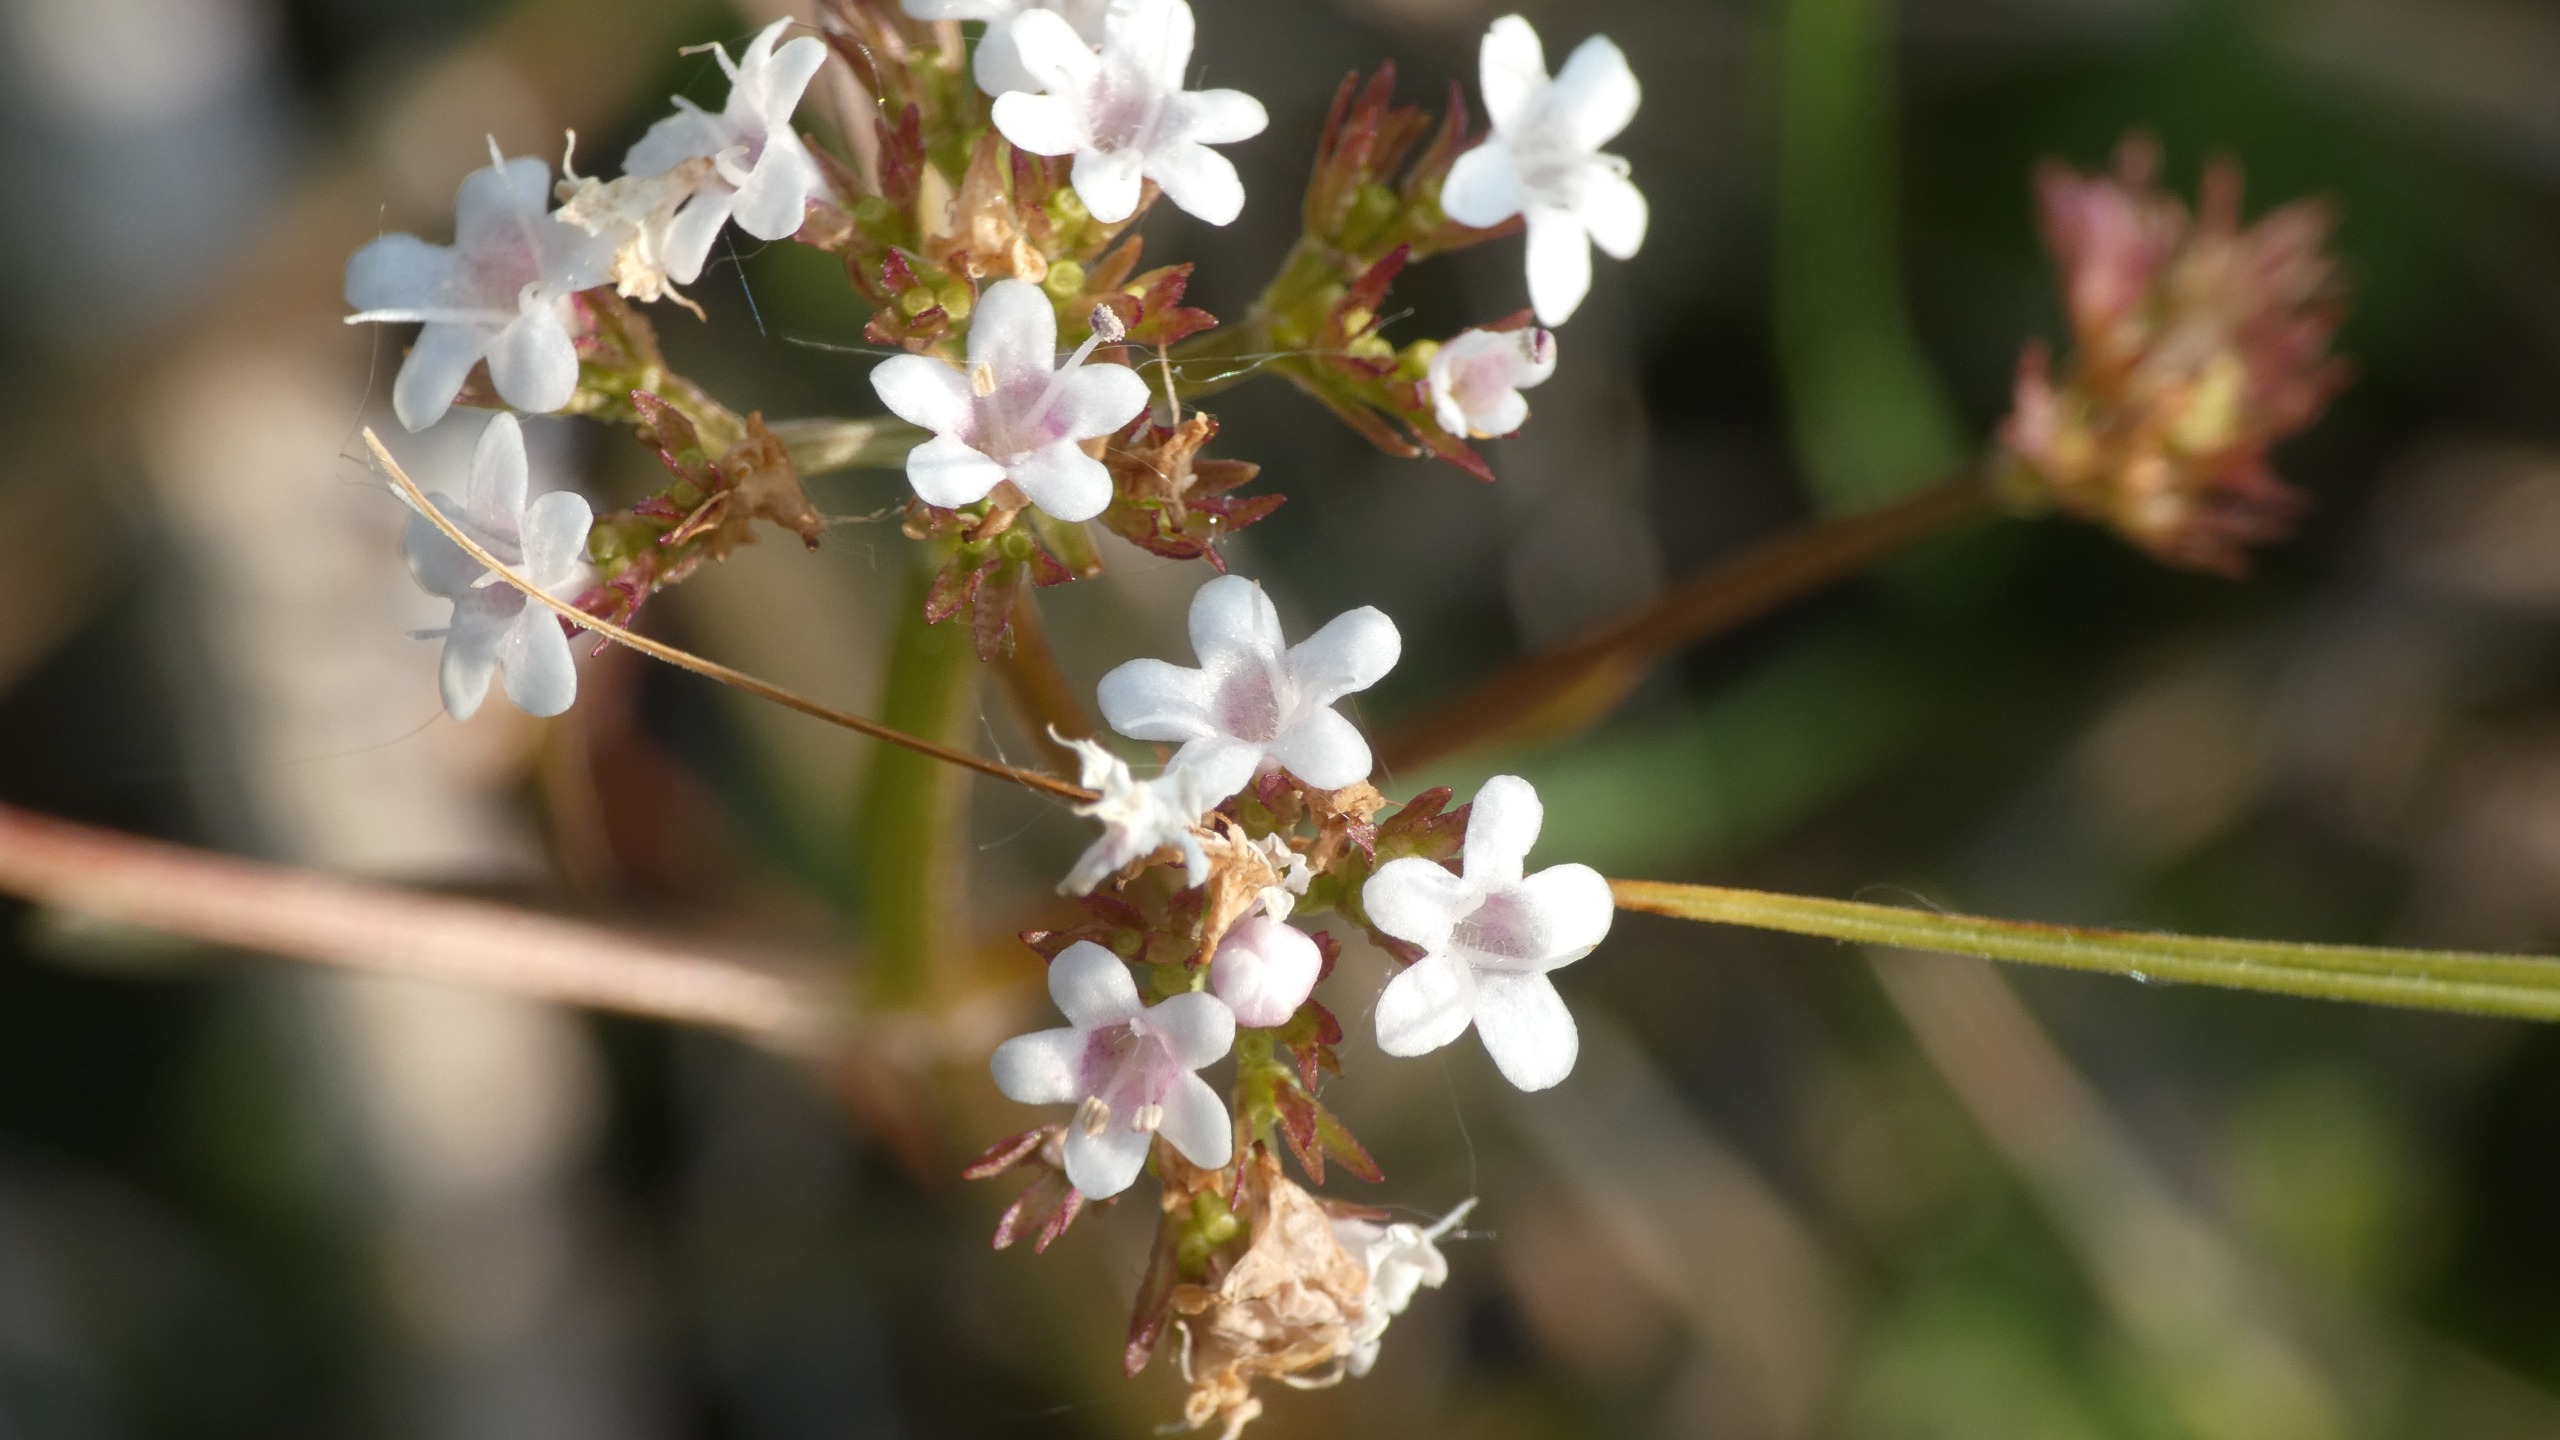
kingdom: Plantae
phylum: Tracheophyta
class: Magnoliopsida
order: Dipsacales
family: Caprifoliaceae
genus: Valeriana
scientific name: Valeriana dioica
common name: Tvebo baldrian
